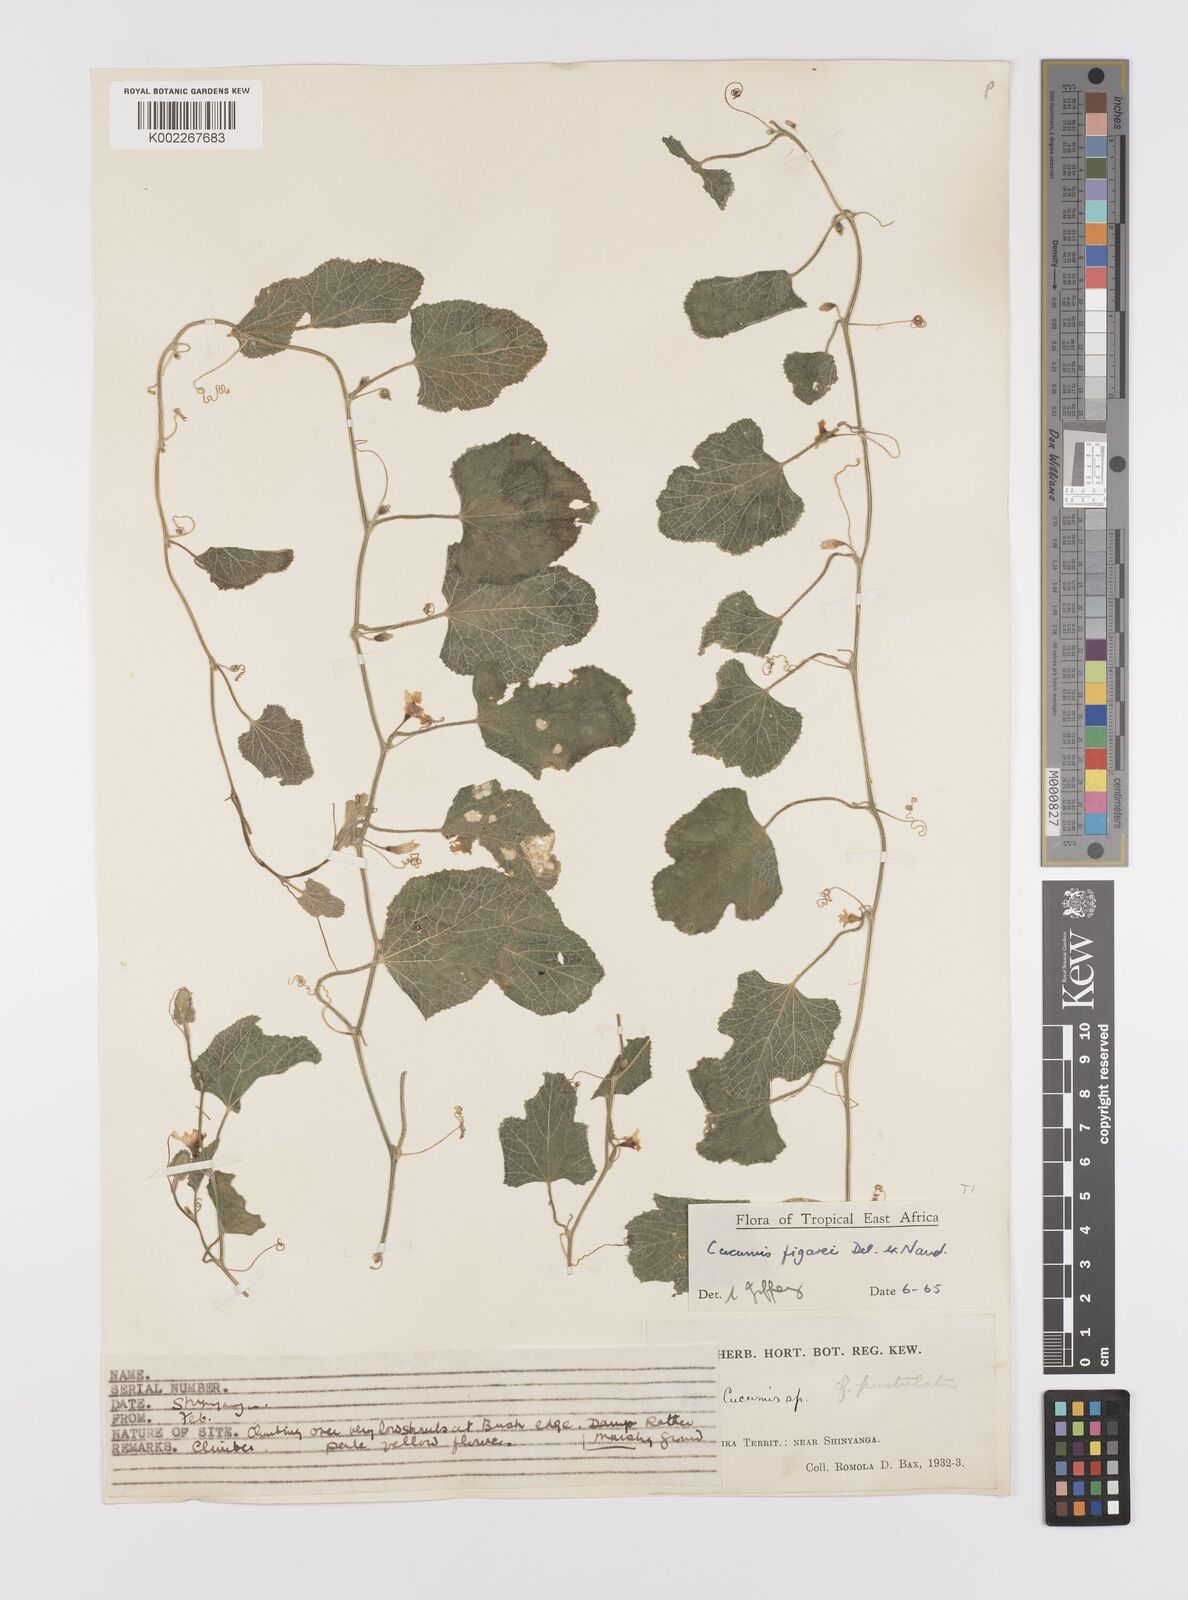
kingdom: Plantae
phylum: Tracheophyta
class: Magnoliopsida
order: Cucurbitales
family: Cucurbitaceae
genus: Cucumis
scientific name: Cucumis
